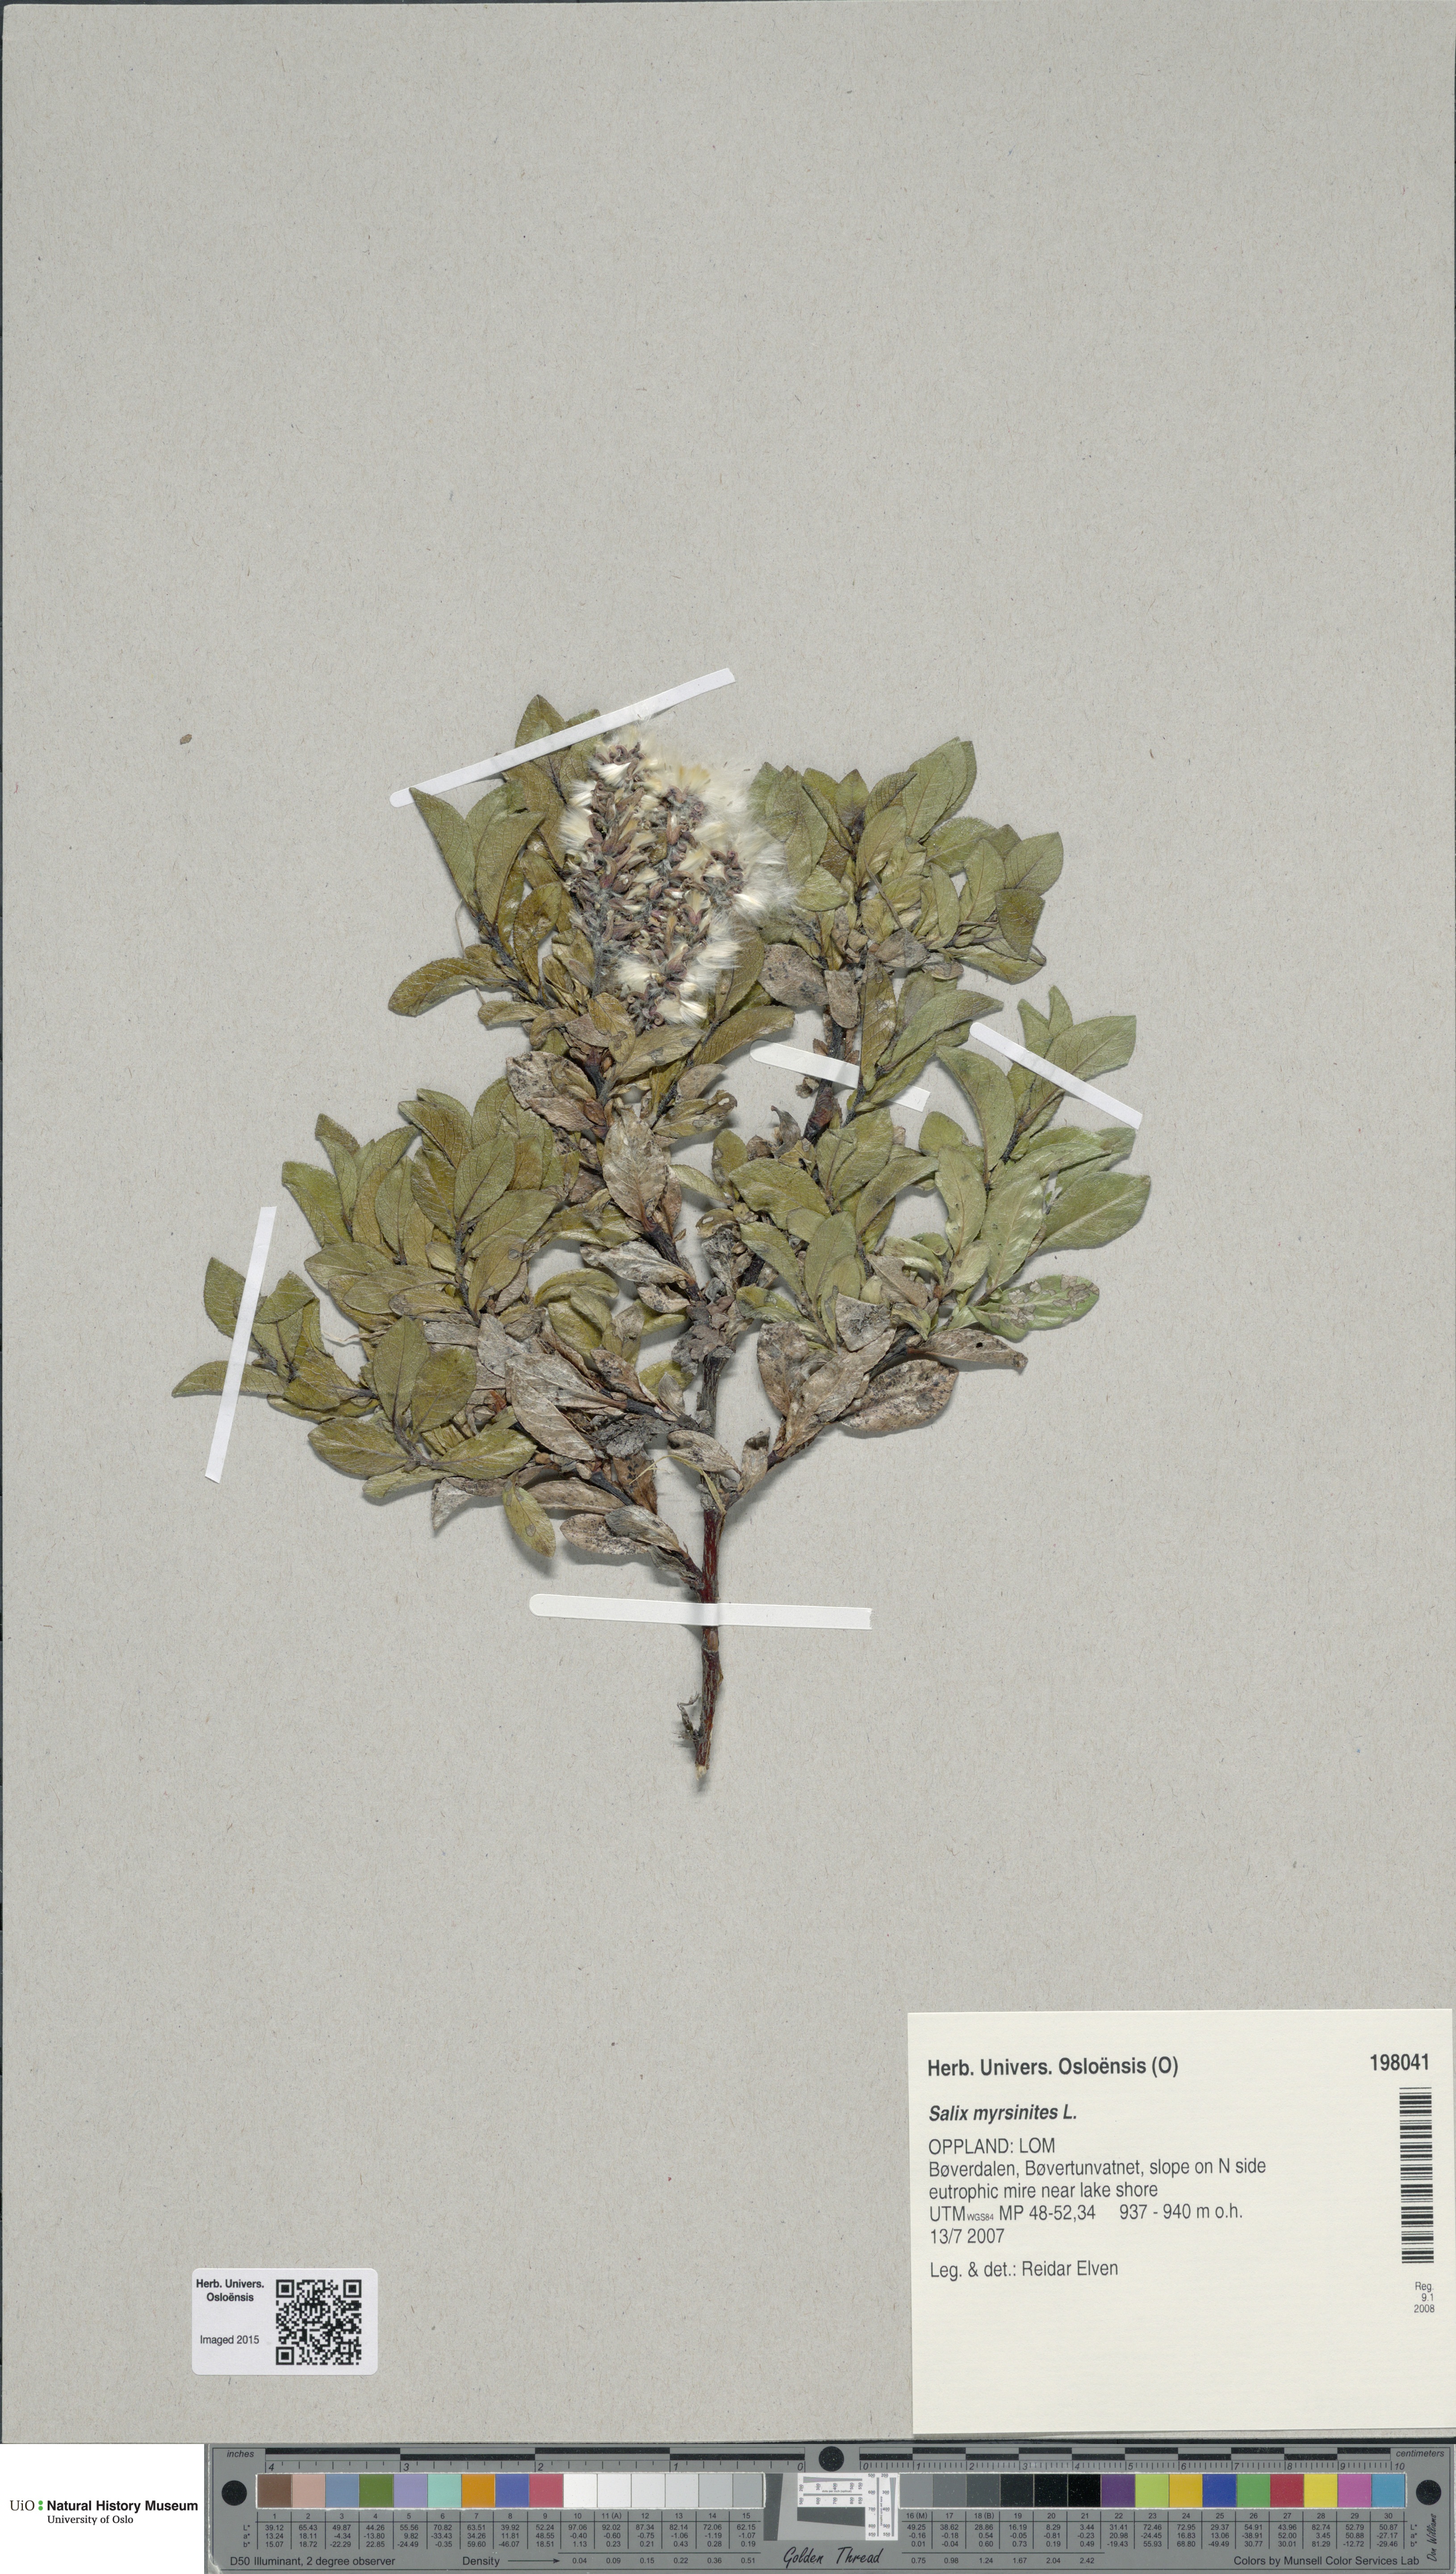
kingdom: Plantae
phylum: Tracheophyta
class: Magnoliopsida
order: Malpighiales
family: Salicaceae
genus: Salix
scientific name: Salix myrsinites
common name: Myrtle willow
